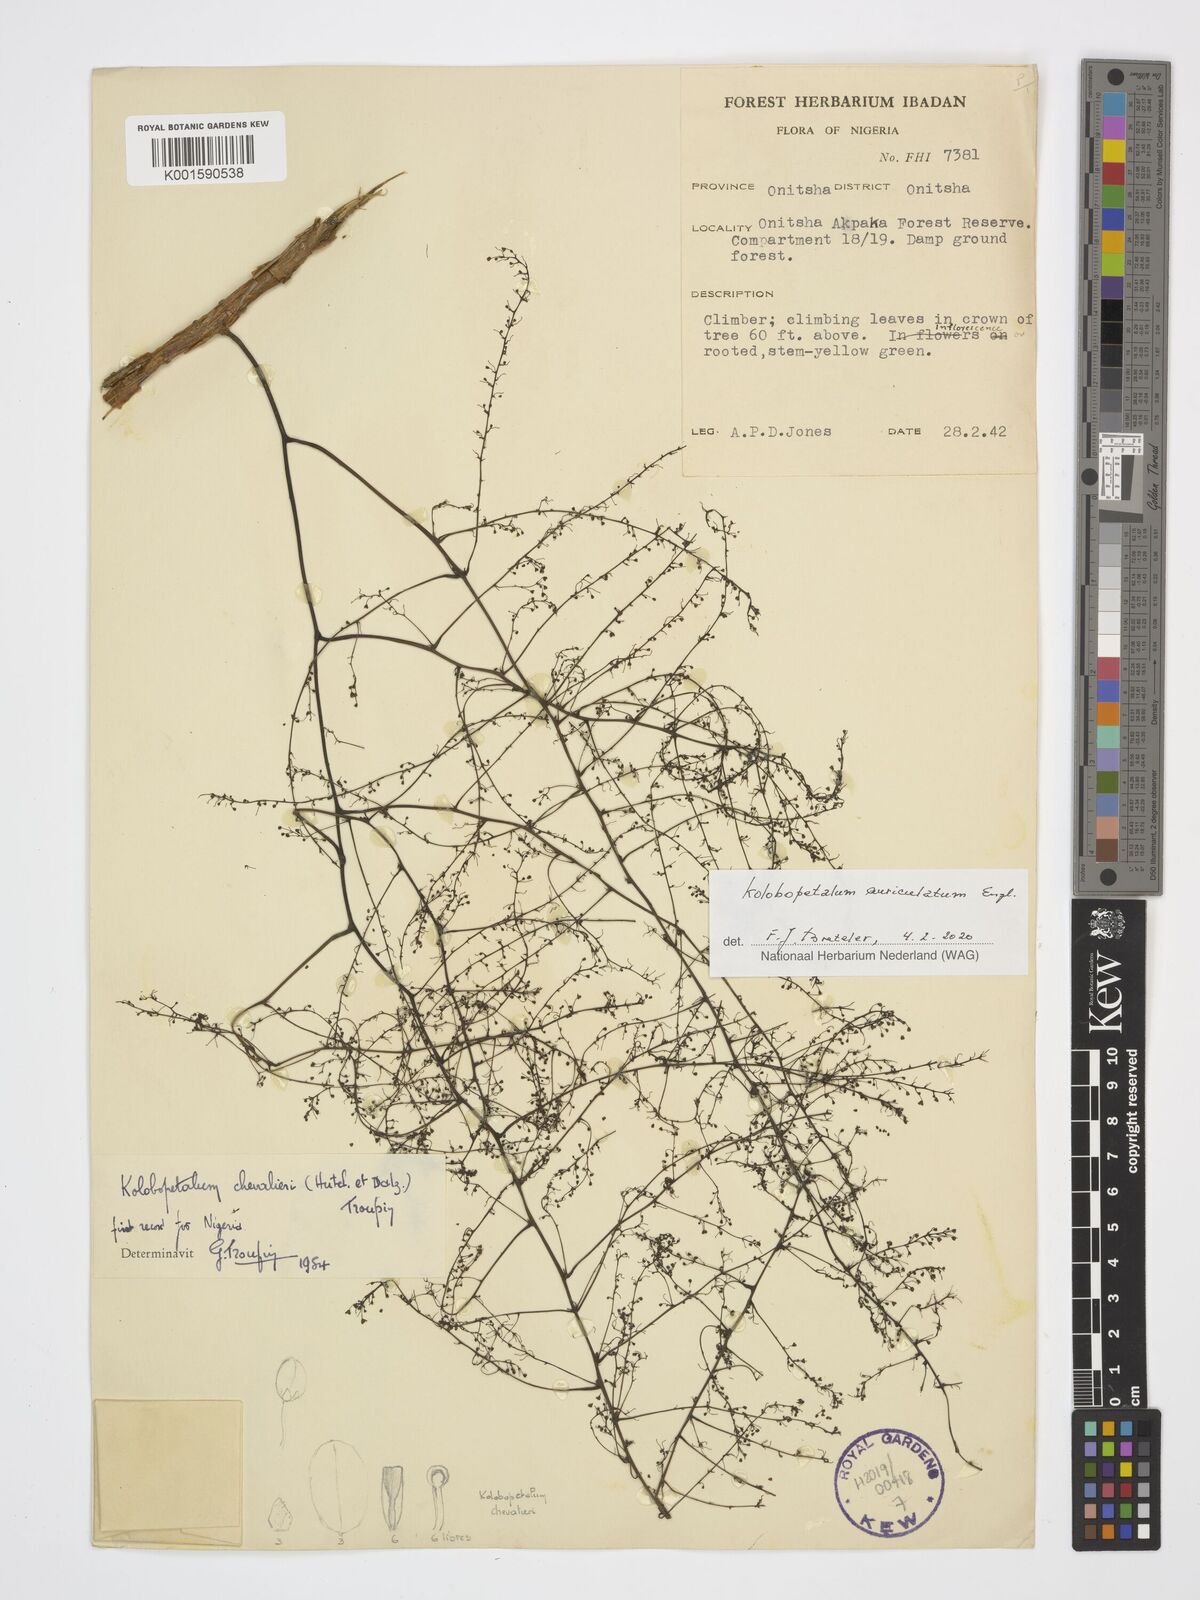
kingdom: Plantae
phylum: Tracheophyta
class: Magnoliopsida
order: Ranunculales
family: Menispermaceae
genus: Kolobopetalum
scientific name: Kolobopetalum auriculatum
